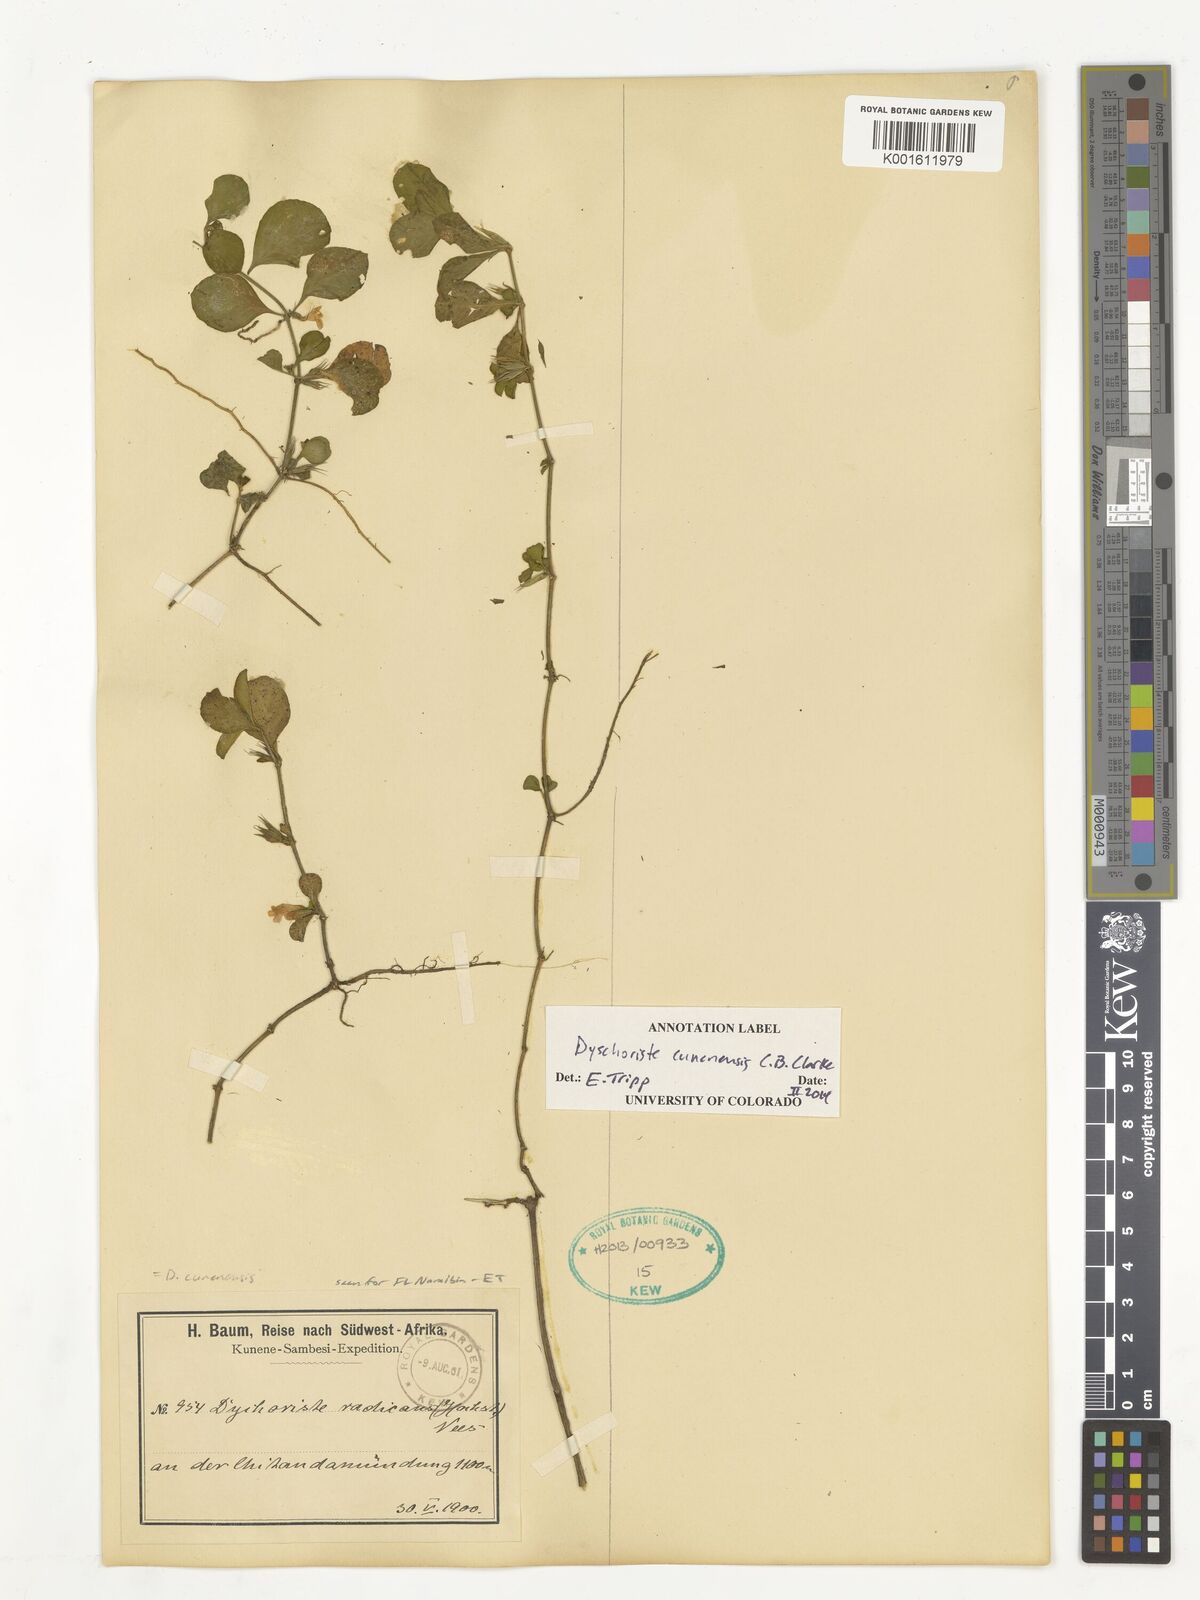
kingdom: Plantae
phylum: Tracheophyta
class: Magnoliopsida
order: Lamiales
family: Acanthaceae
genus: Dyschoriste
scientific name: Dyschoriste cunenensis
